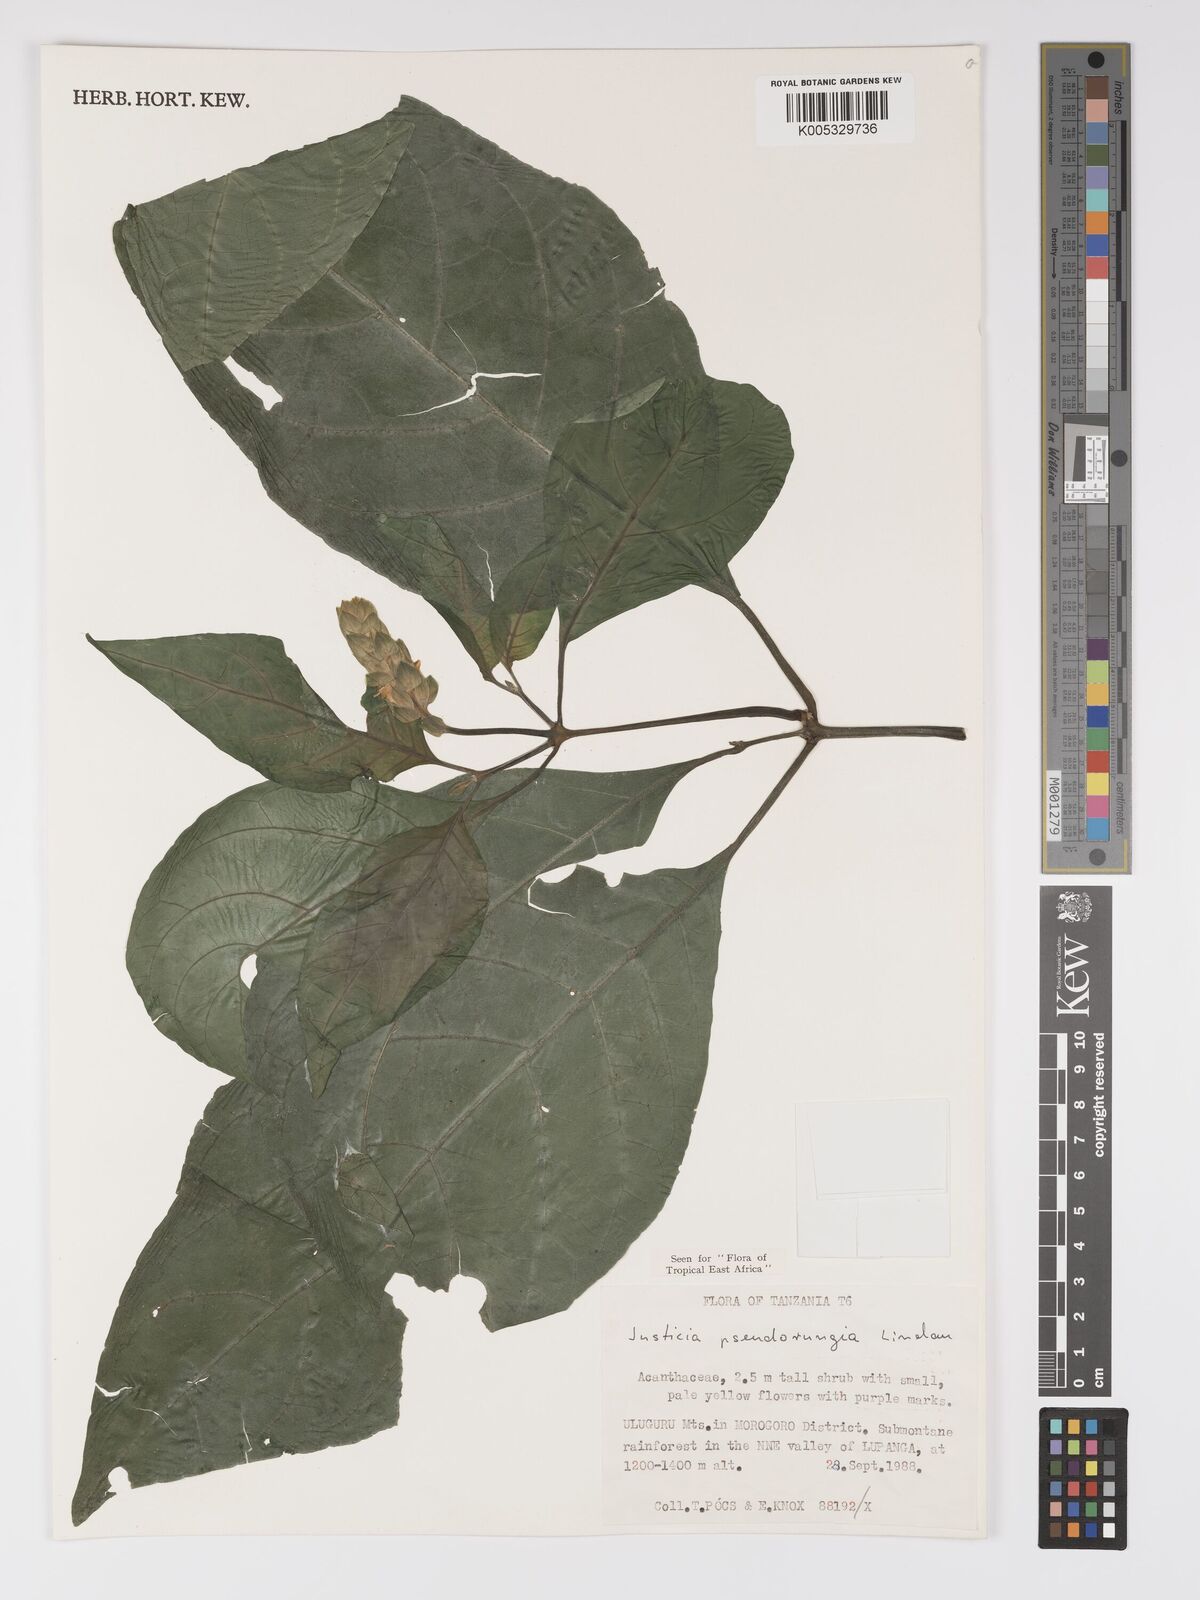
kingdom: Plantae
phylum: Tracheophyta
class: Magnoliopsida
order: Lamiales
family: Acanthaceae
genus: Justicia
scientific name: Justicia pseudorungia
